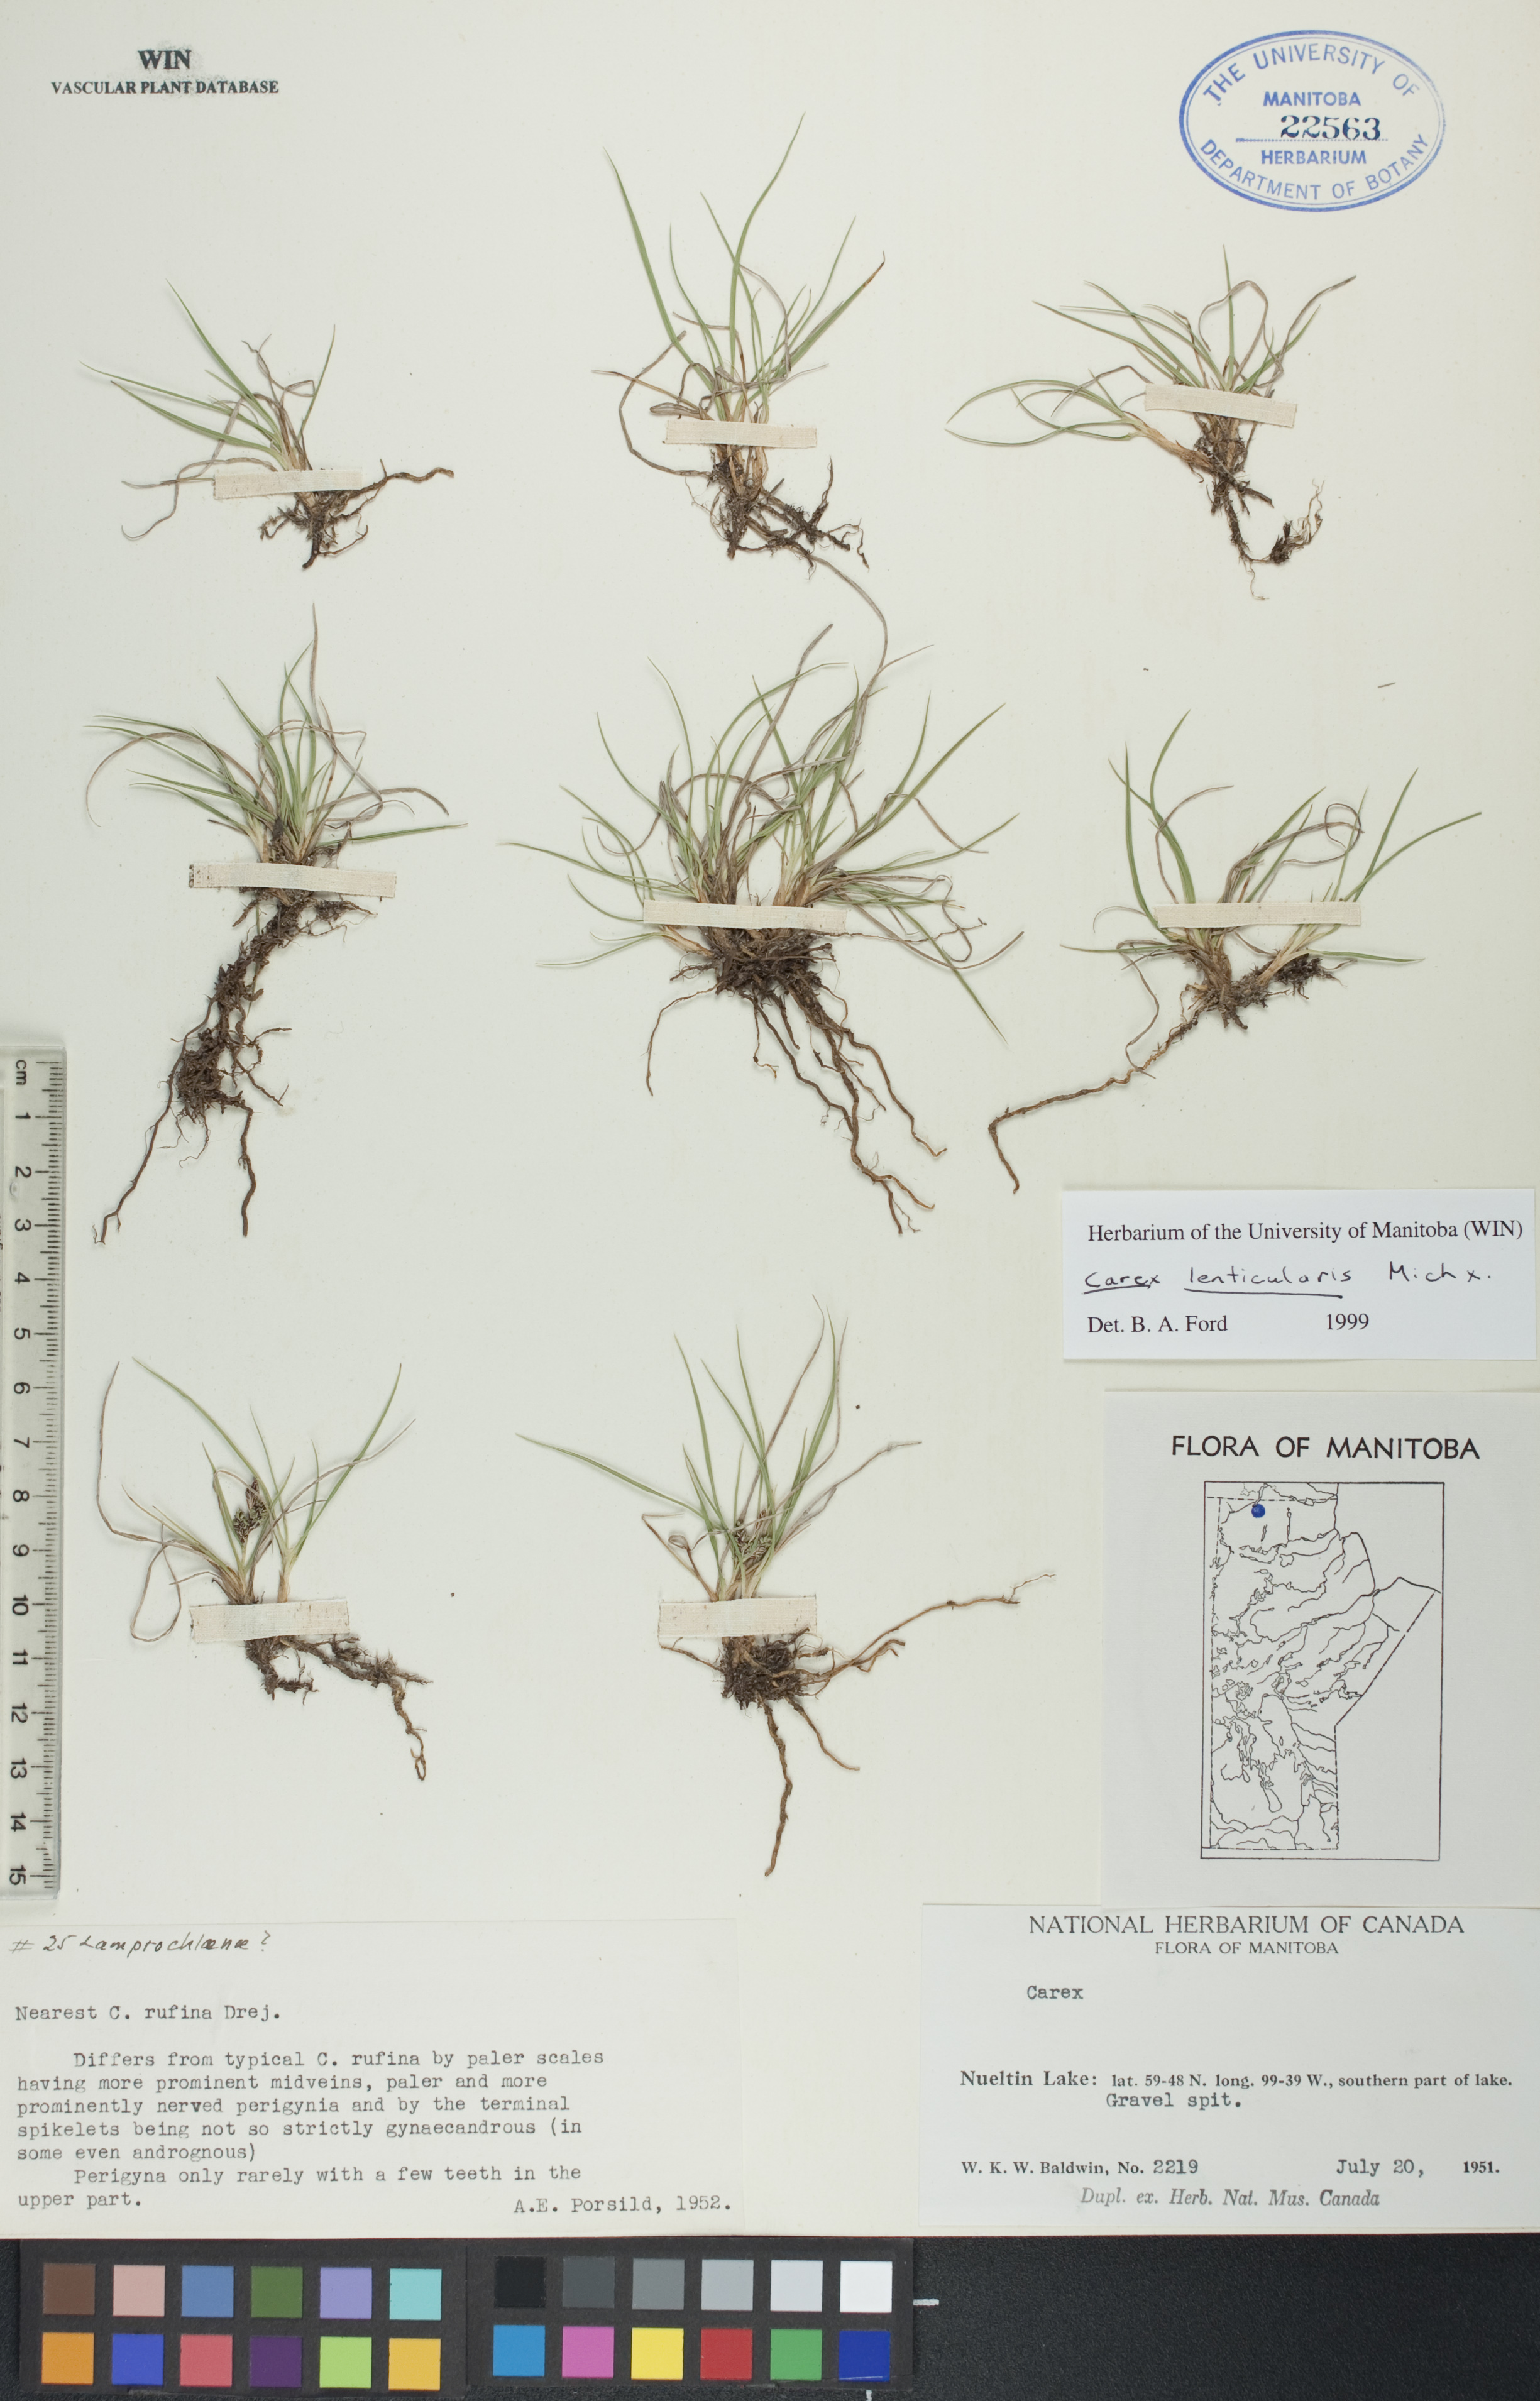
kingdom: Plantae
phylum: Tracheophyta
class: Liliopsida
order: Poales
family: Cyperaceae
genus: Carex
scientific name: Carex lenticularis
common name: Lakeshore sedge
